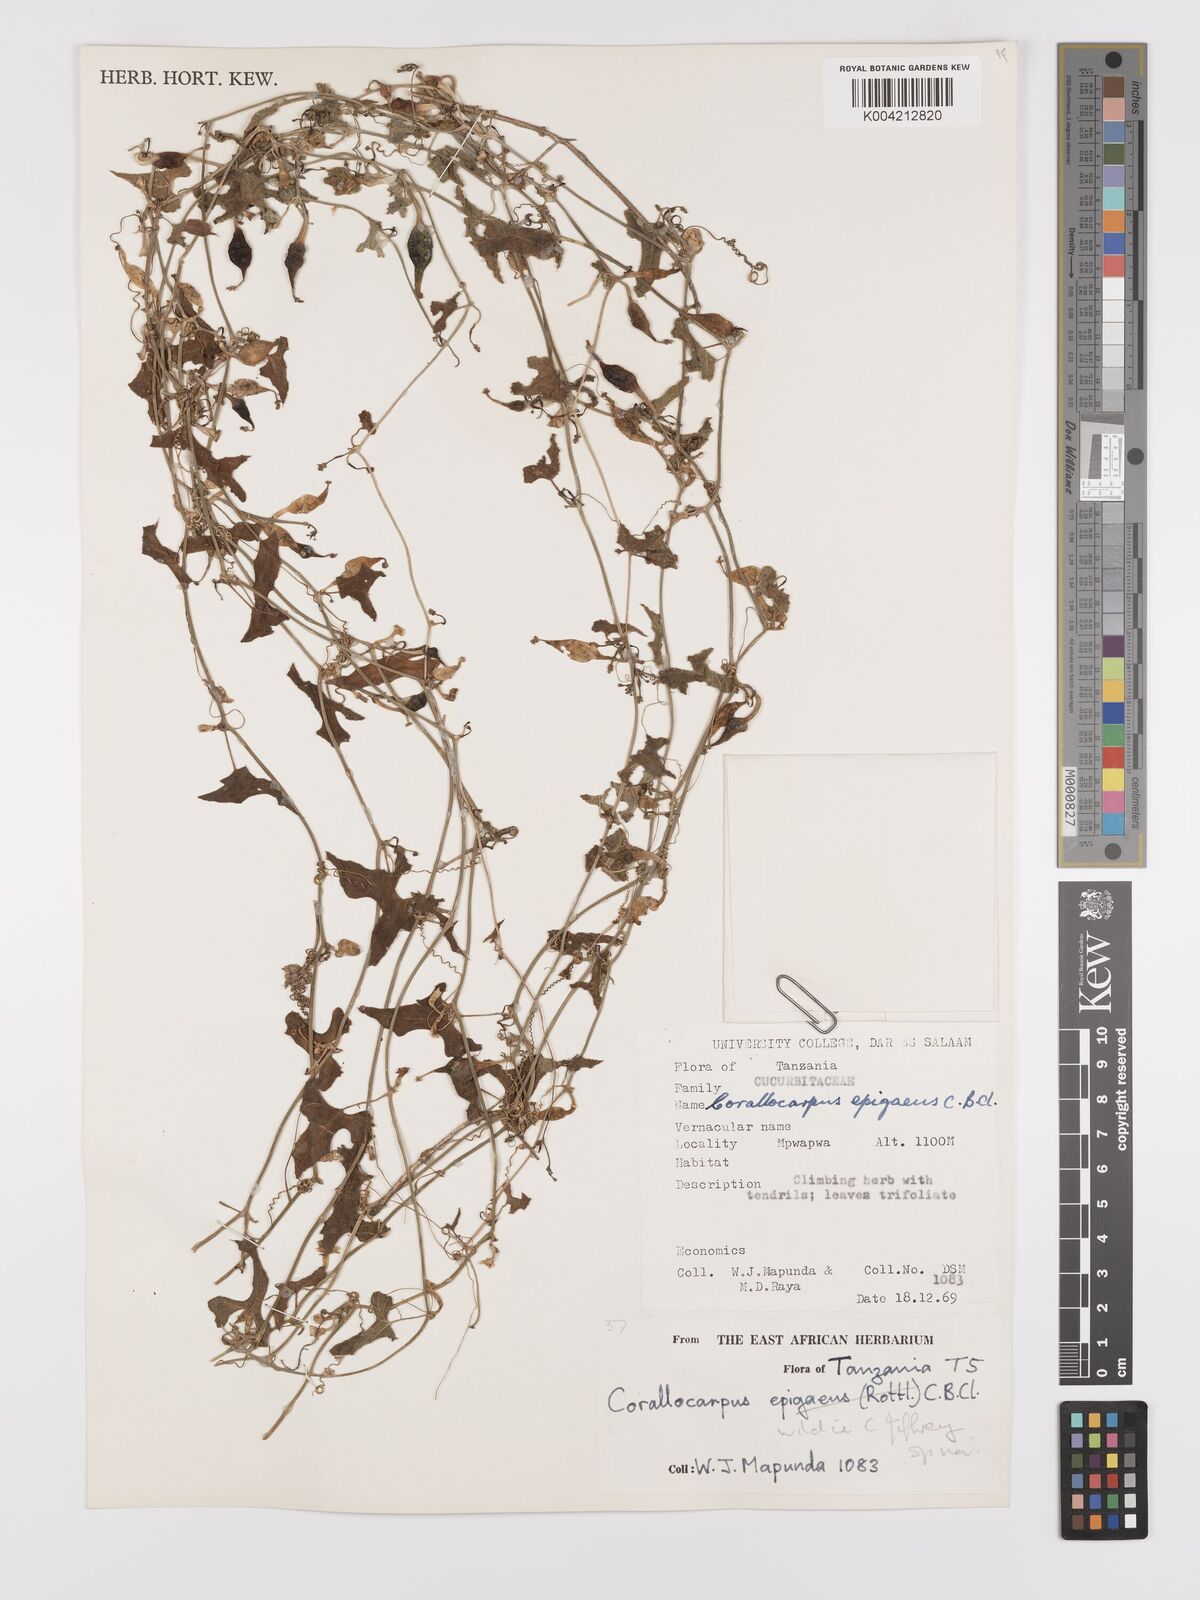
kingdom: Plantae
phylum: Tracheophyta
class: Magnoliopsida
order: Cucurbitales
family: Cucurbitaceae
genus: Corallocarpus
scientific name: Corallocarpus tenuissimus
